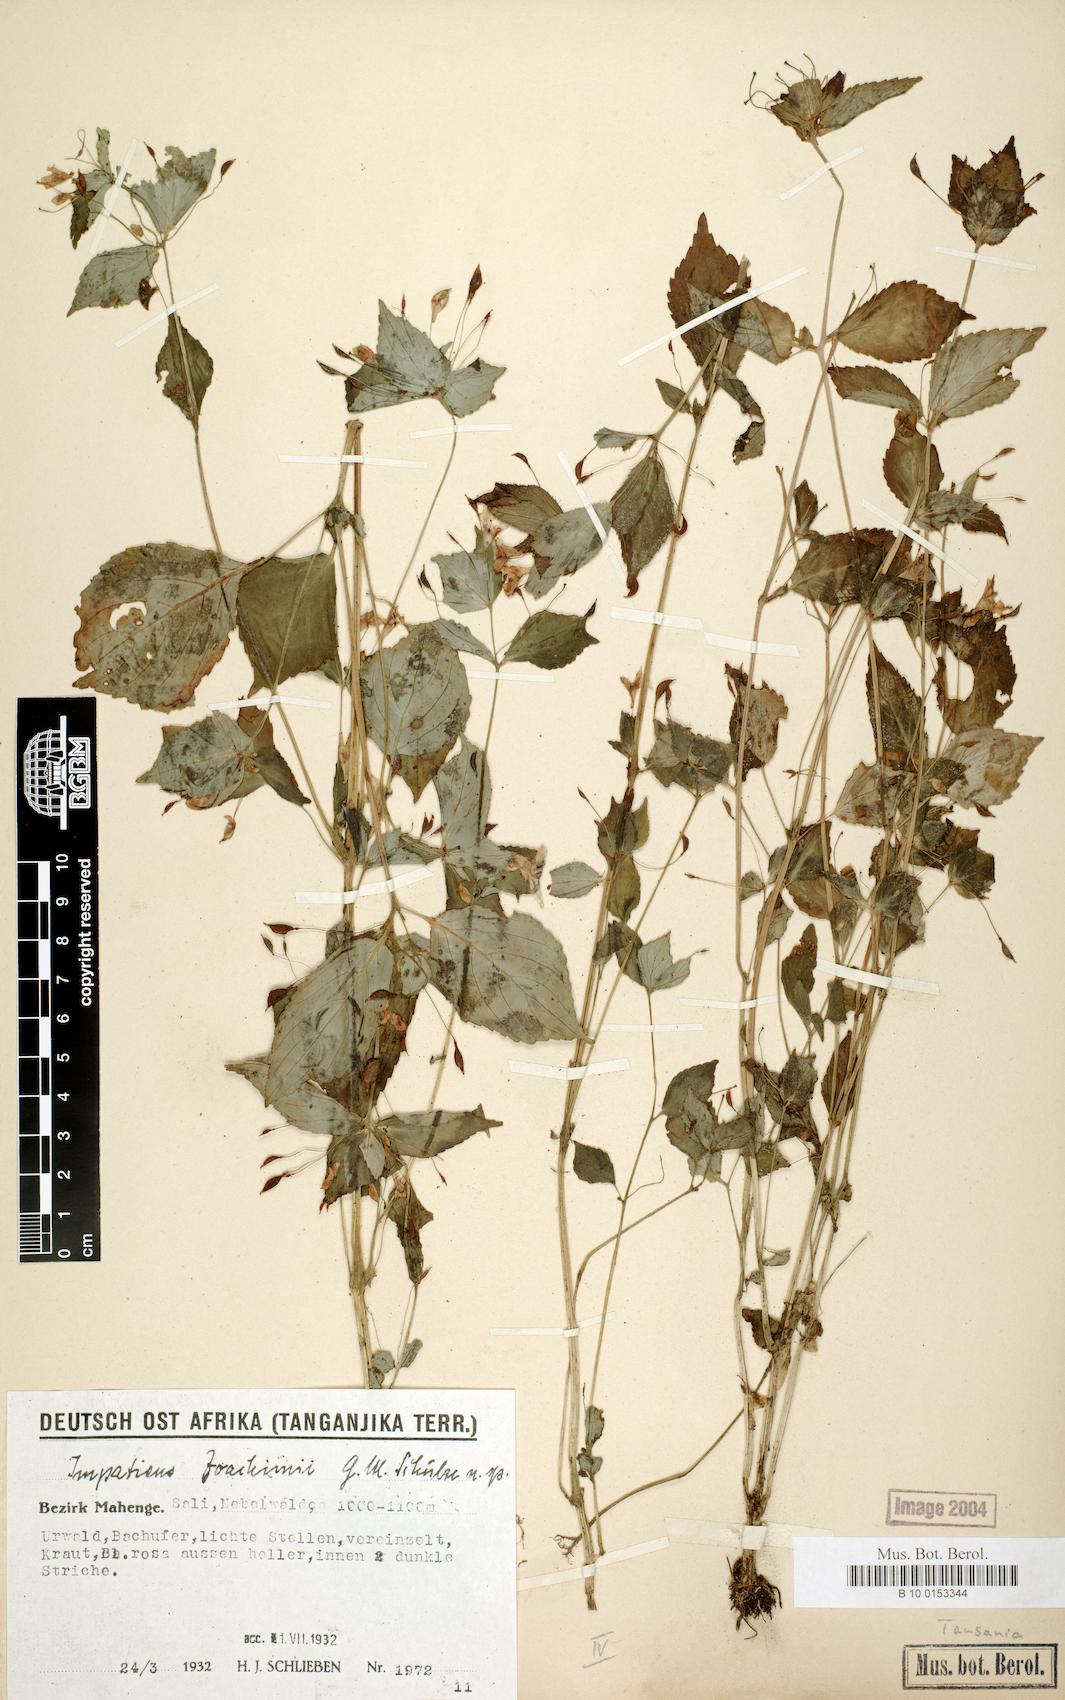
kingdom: Plantae
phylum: Tracheophyta
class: Magnoliopsida
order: Ericales
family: Balsaminaceae
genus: Impatiens
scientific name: Impatiens joachimii
